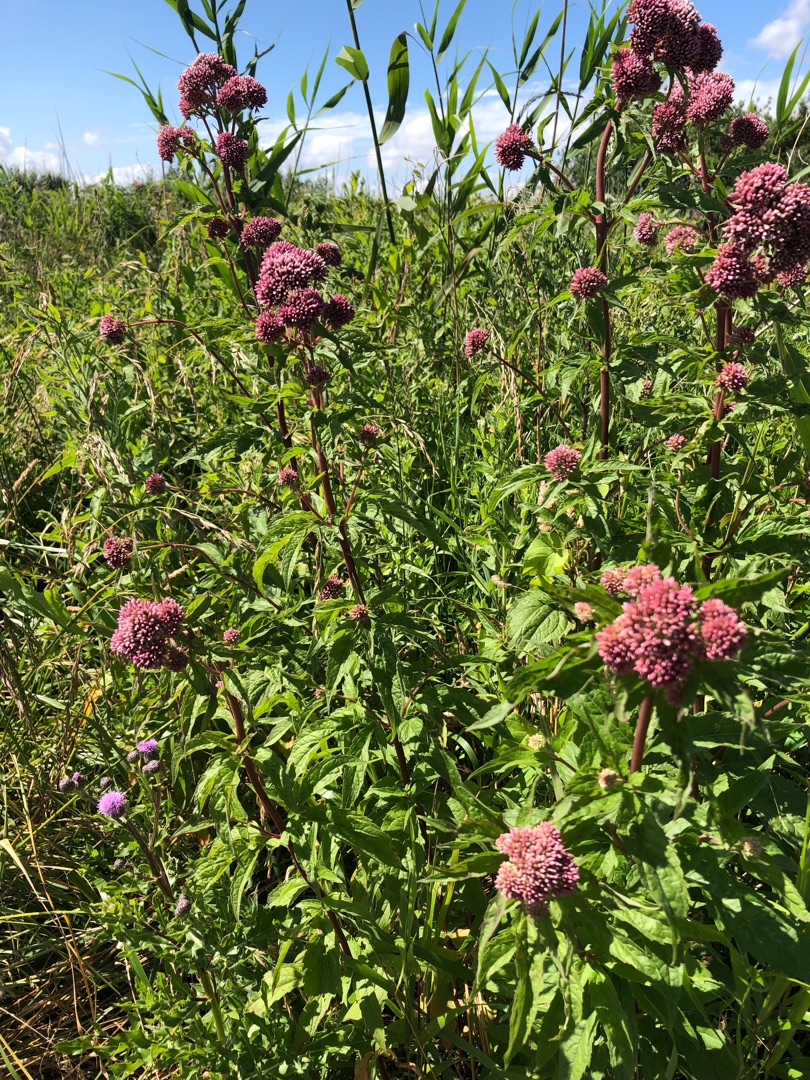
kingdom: Plantae
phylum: Tracheophyta
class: Magnoliopsida
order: Asterales
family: Asteraceae
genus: Eupatorium
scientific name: Eupatorium cannabinum
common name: Hjortetrøst
